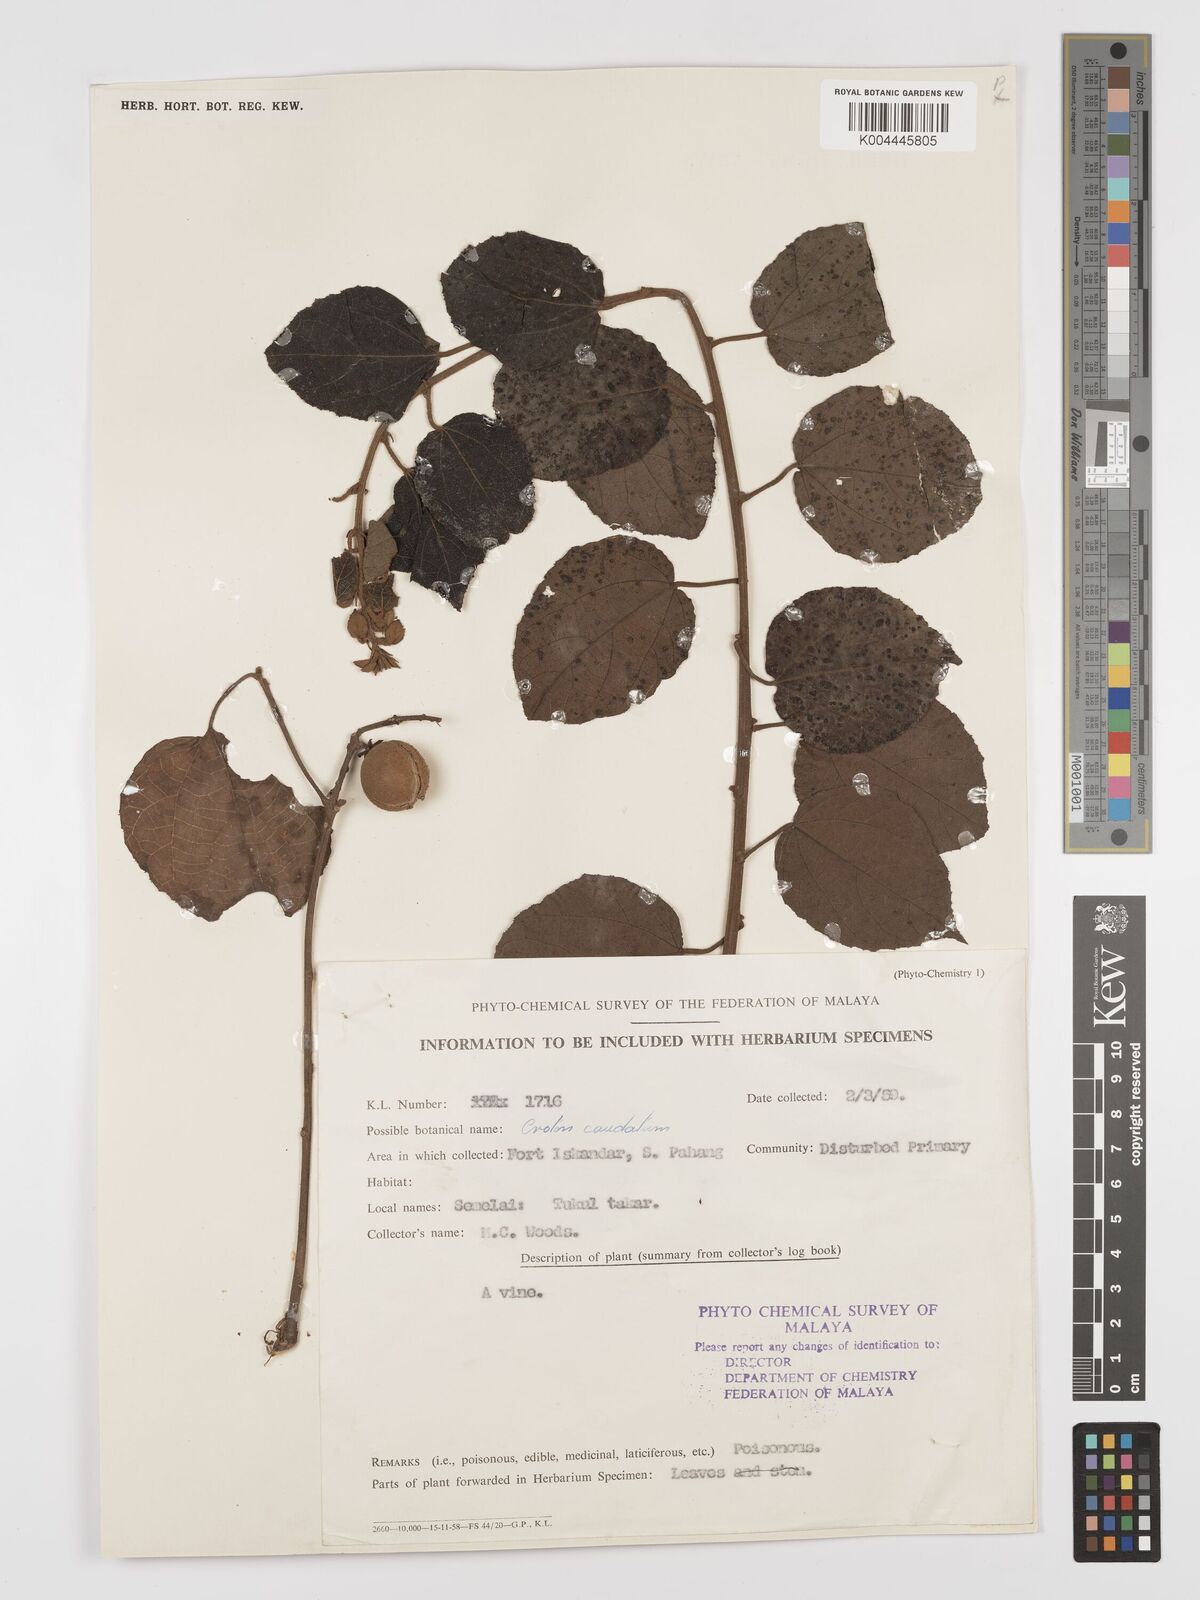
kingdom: Plantae
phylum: Tracheophyta
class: Magnoliopsida
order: Malpighiales
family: Euphorbiaceae
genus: Croton
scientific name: Croton caudatus
